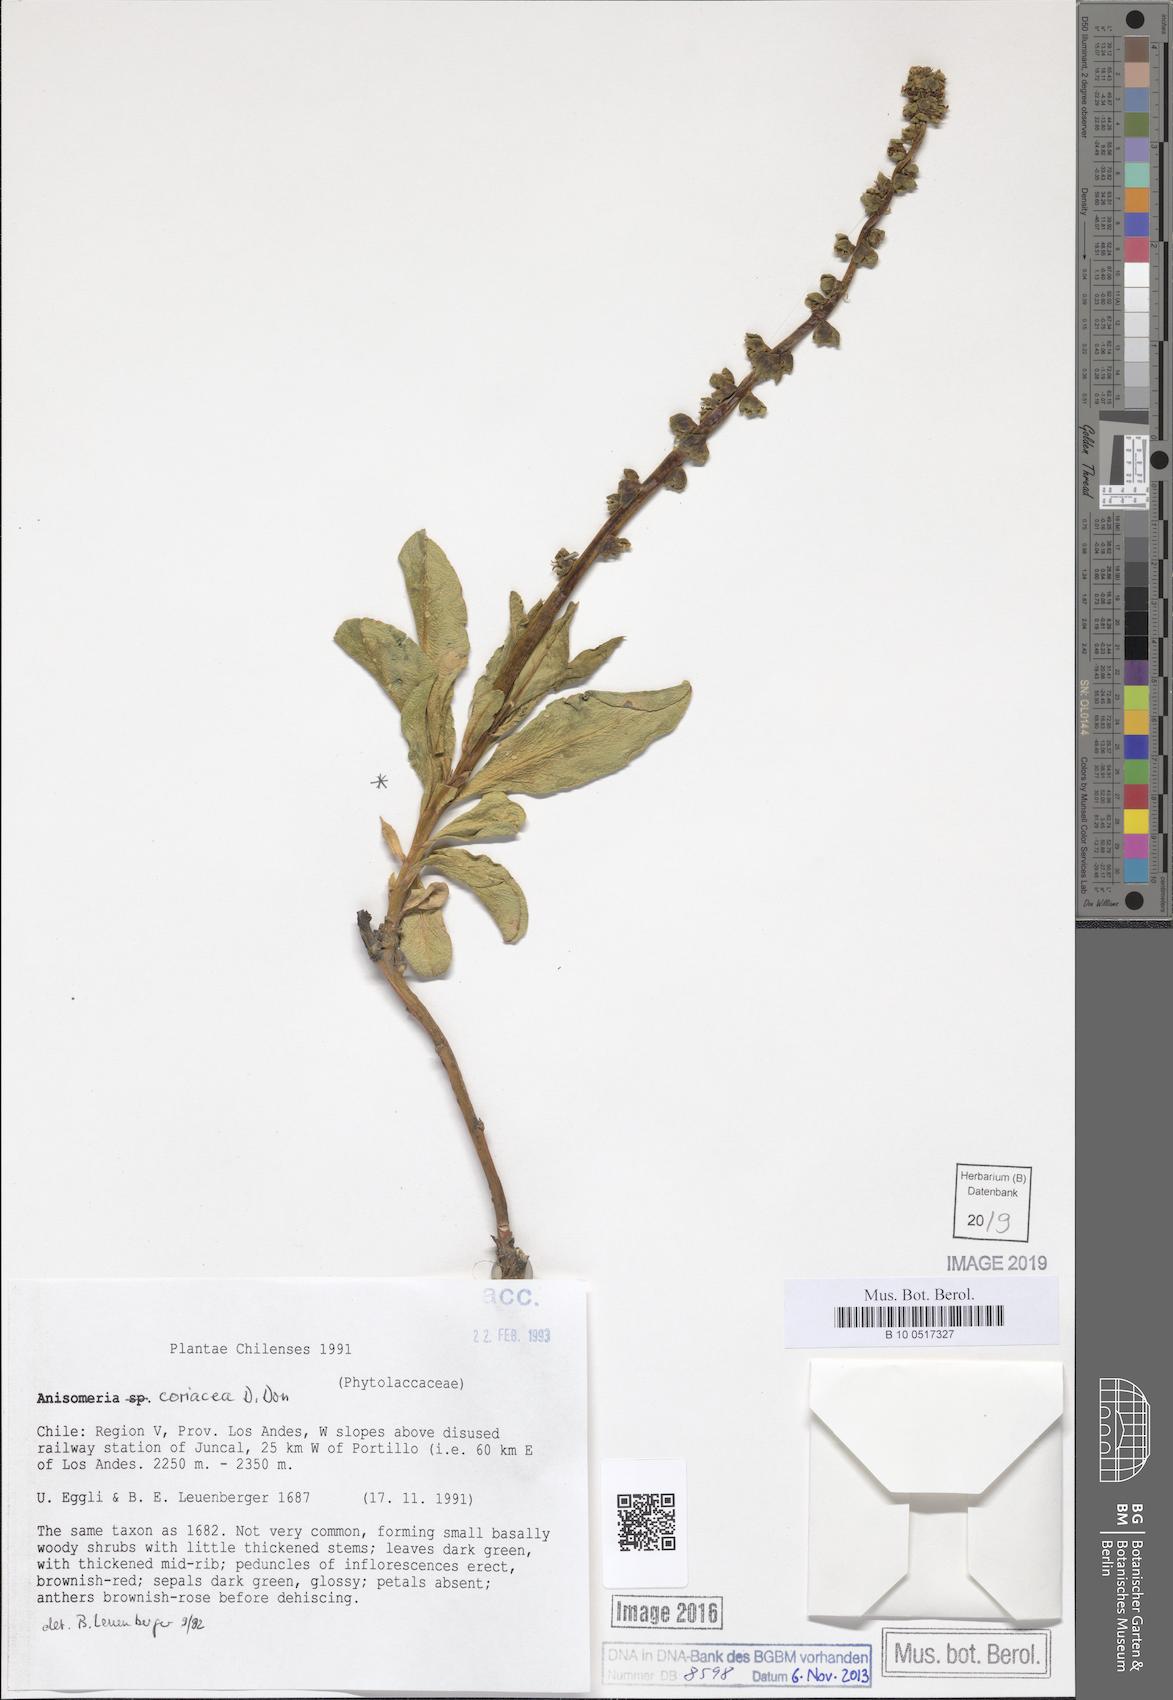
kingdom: Plantae
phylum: Tracheophyta
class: Magnoliopsida
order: Caryophyllales
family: Phytolaccaceae
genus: Anisomeria
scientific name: Anisomeria coriacea
